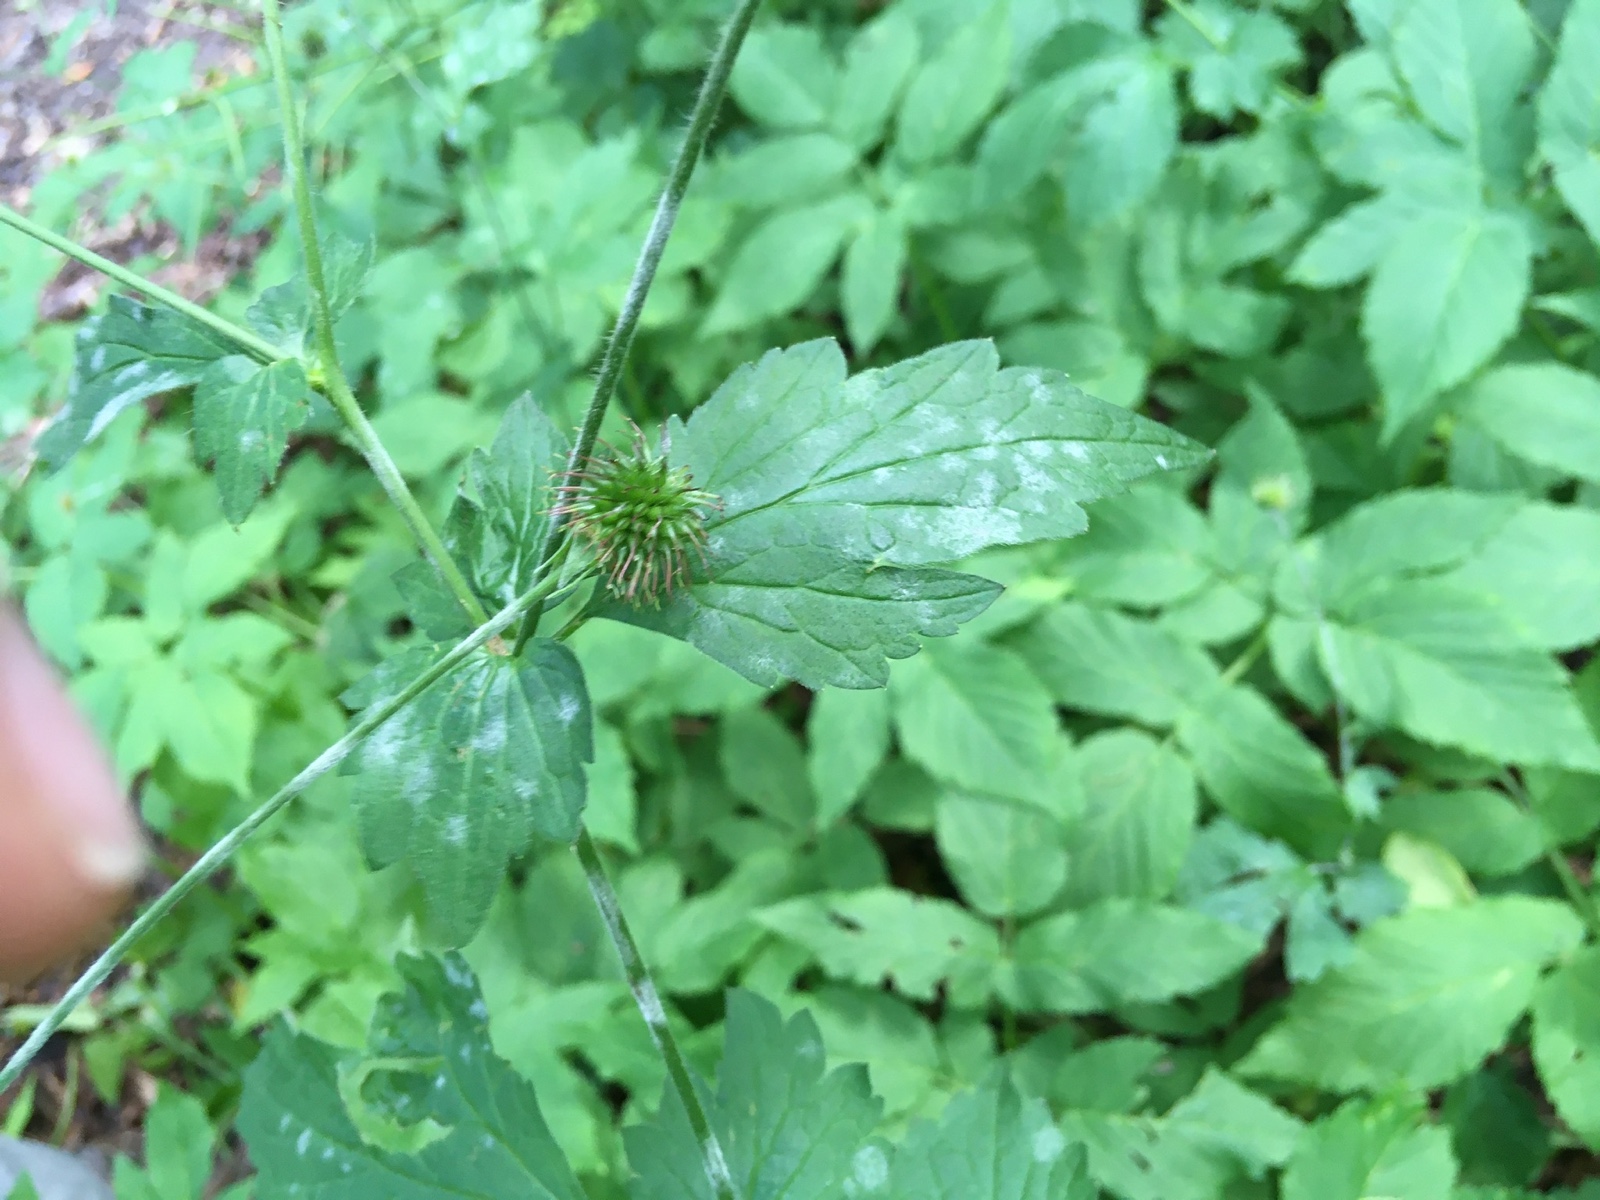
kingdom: Fungi
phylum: Ascomycota
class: Leotiomycetes
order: Helotiales
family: Erysiphaceae
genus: Podosphaera
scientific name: Podosphaera aphanis
